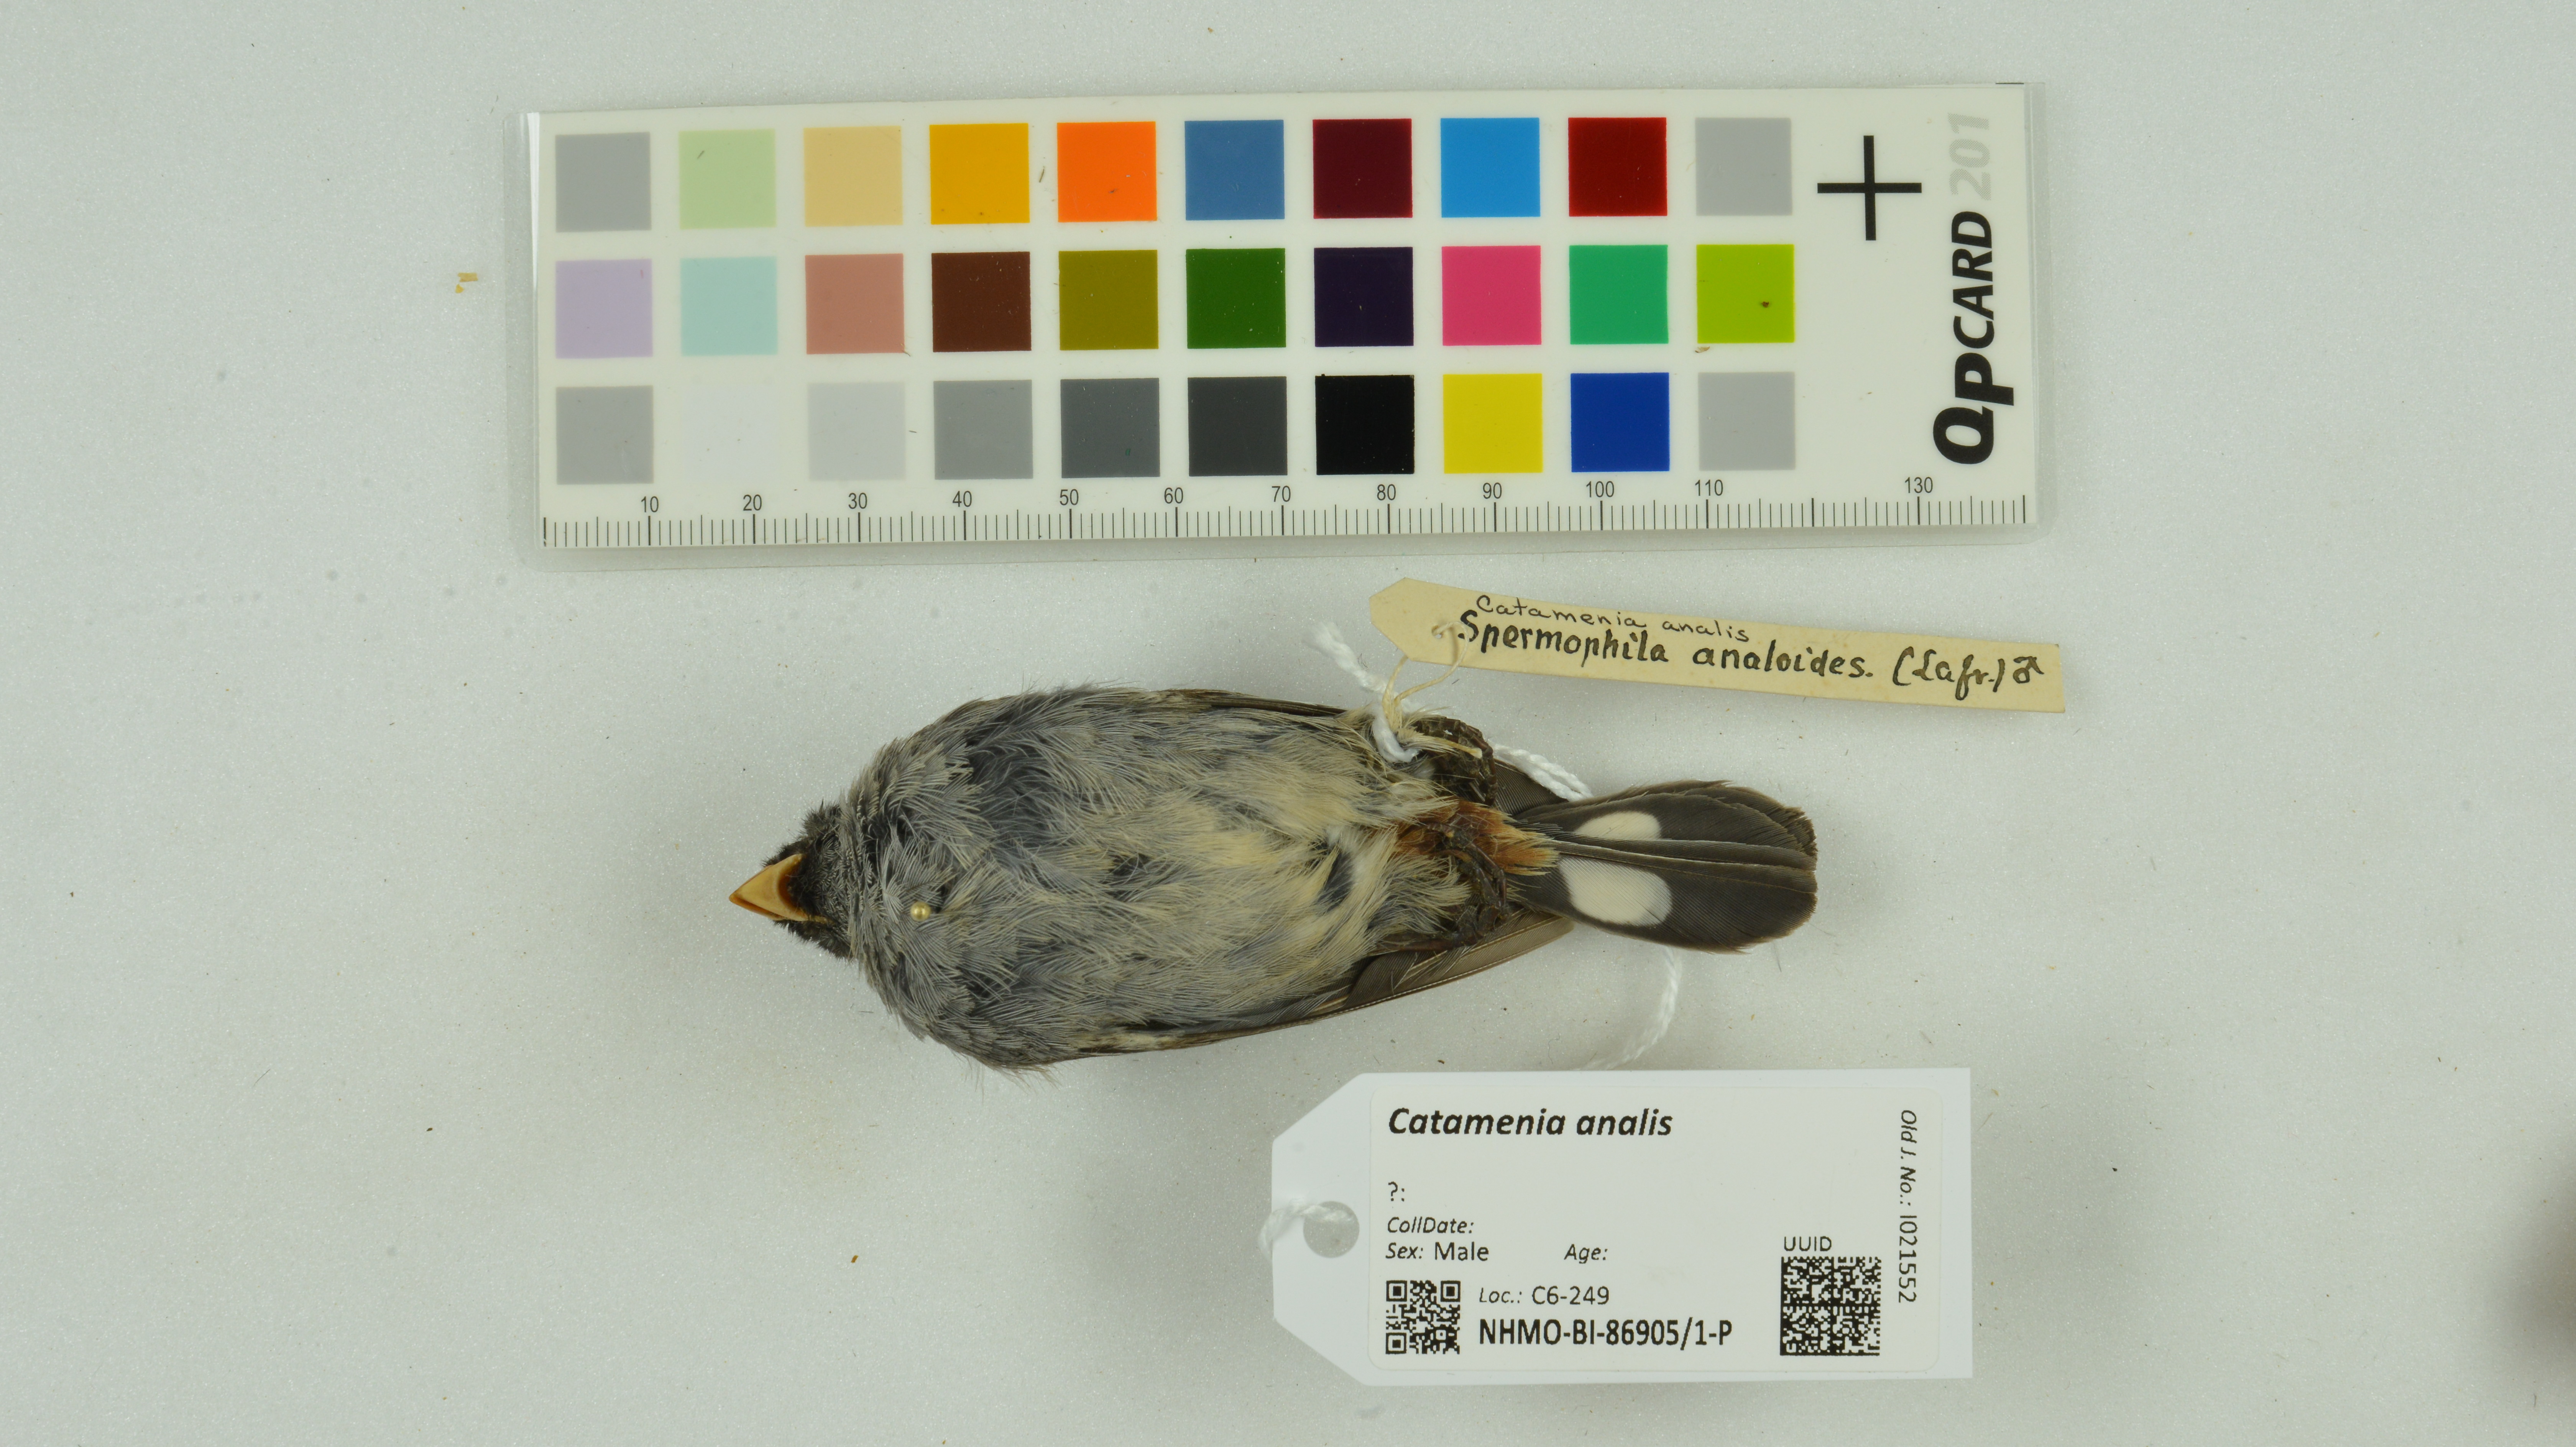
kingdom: Animalia
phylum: Chordata
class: Aves
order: Passeriformes
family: Thraupidae
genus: Catamenia
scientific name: Catamenia analis
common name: Band-tailed seedeater
